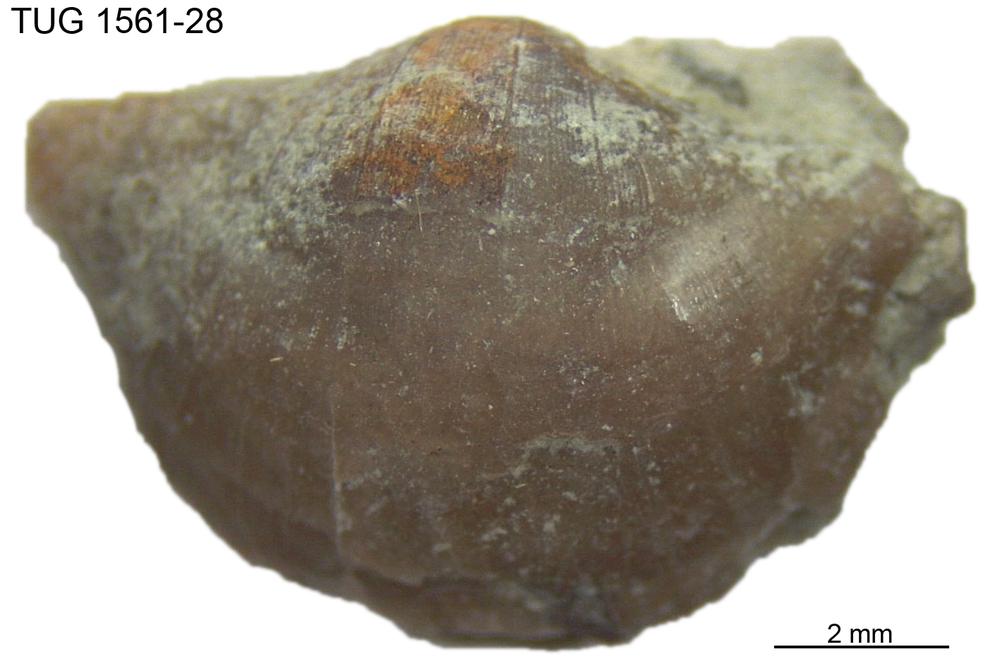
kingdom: Animalia
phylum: Brachiopoda
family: Oldhaminidae
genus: Eoplectodonta
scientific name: Eoplectodonta
